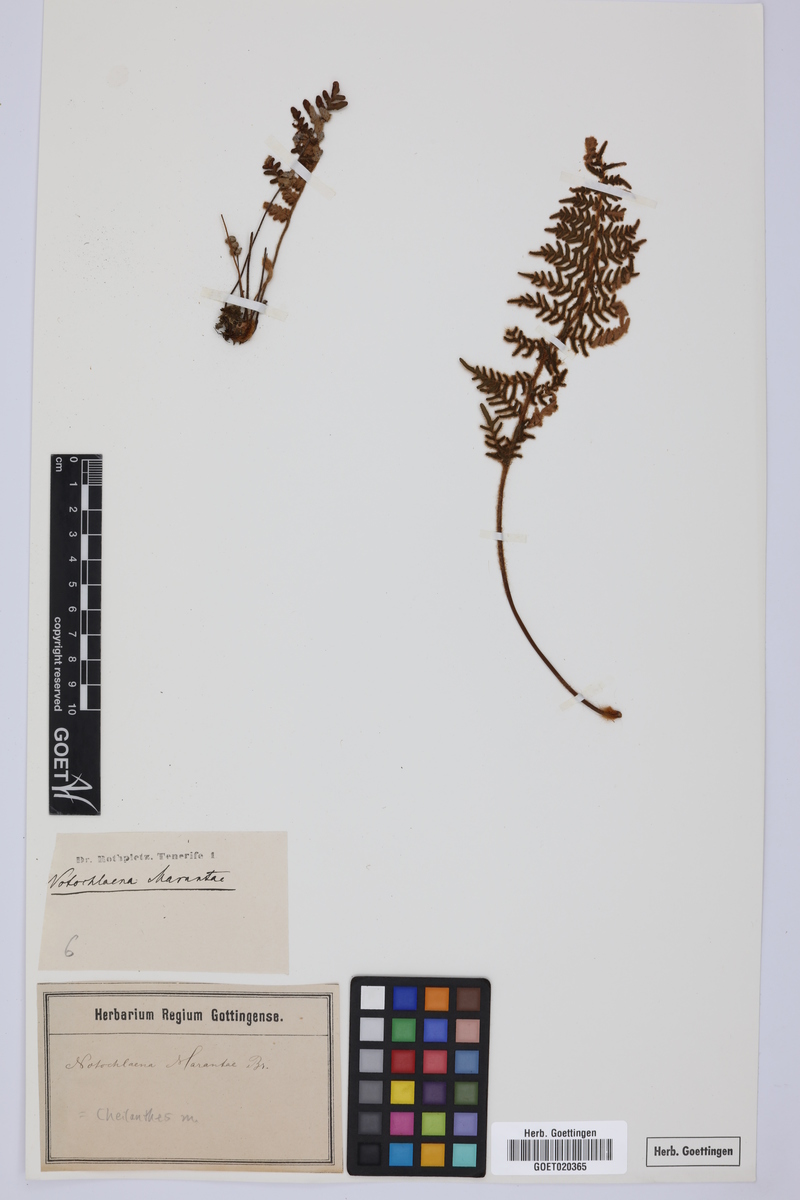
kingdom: Plantae
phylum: Tracheophyta
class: Polypodiopsida
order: Polypodiales
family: Pteridaceae
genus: Paragymnopteris
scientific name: Paragymnopteris marantae
